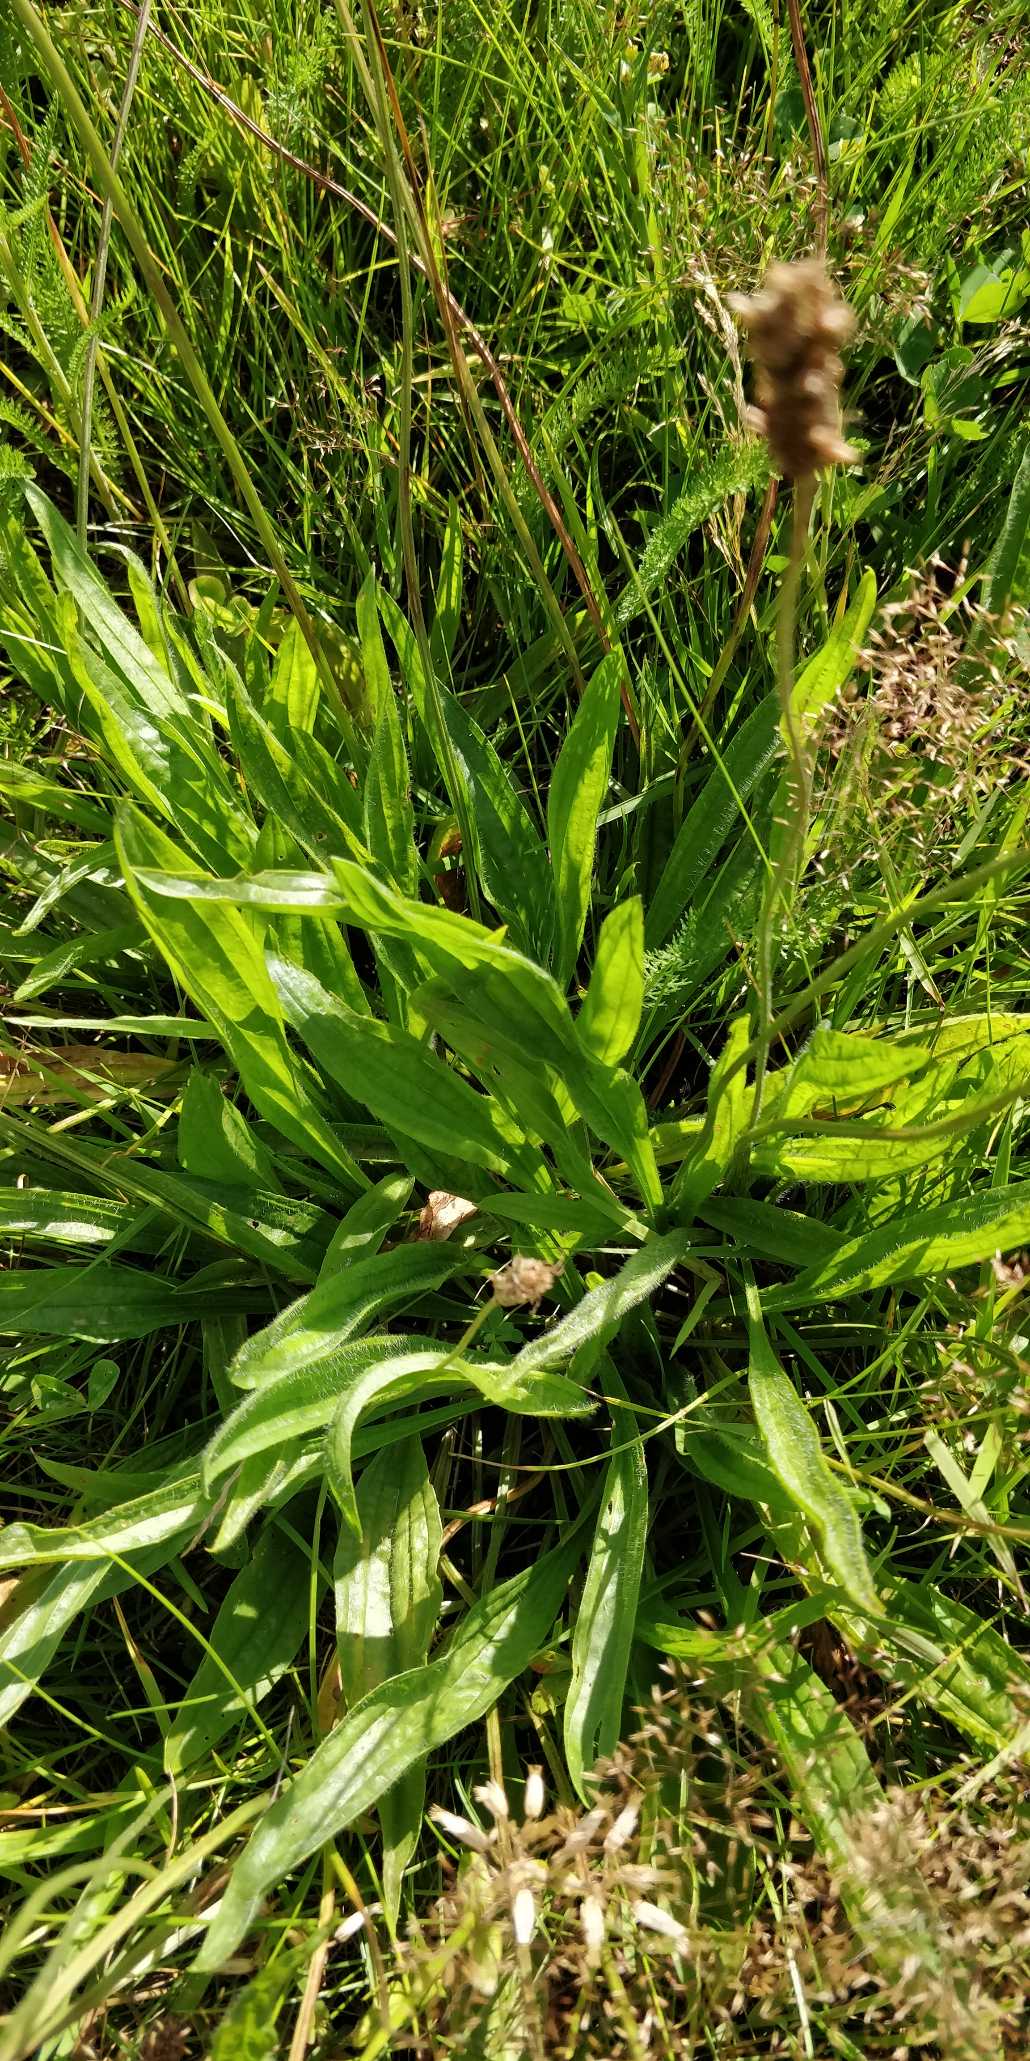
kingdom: Plantae
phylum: Tracheophyta
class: Magnoliopsida
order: Lamiales
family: Plantaginaceae
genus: Plantago
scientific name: Plantago lanceolata
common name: Lancet-vejbred
